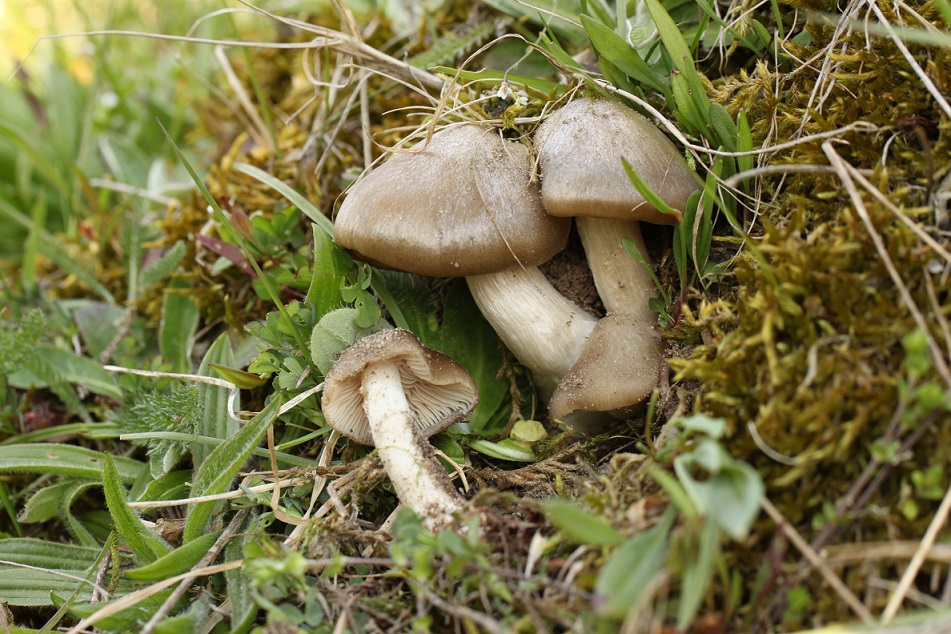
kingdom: Fungi
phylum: Basidiomycota
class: Agaricomycetes
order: Agaricales
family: Entolomataceae
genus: Entoloma
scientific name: Entoloma clypeatum
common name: flammet rødblad
